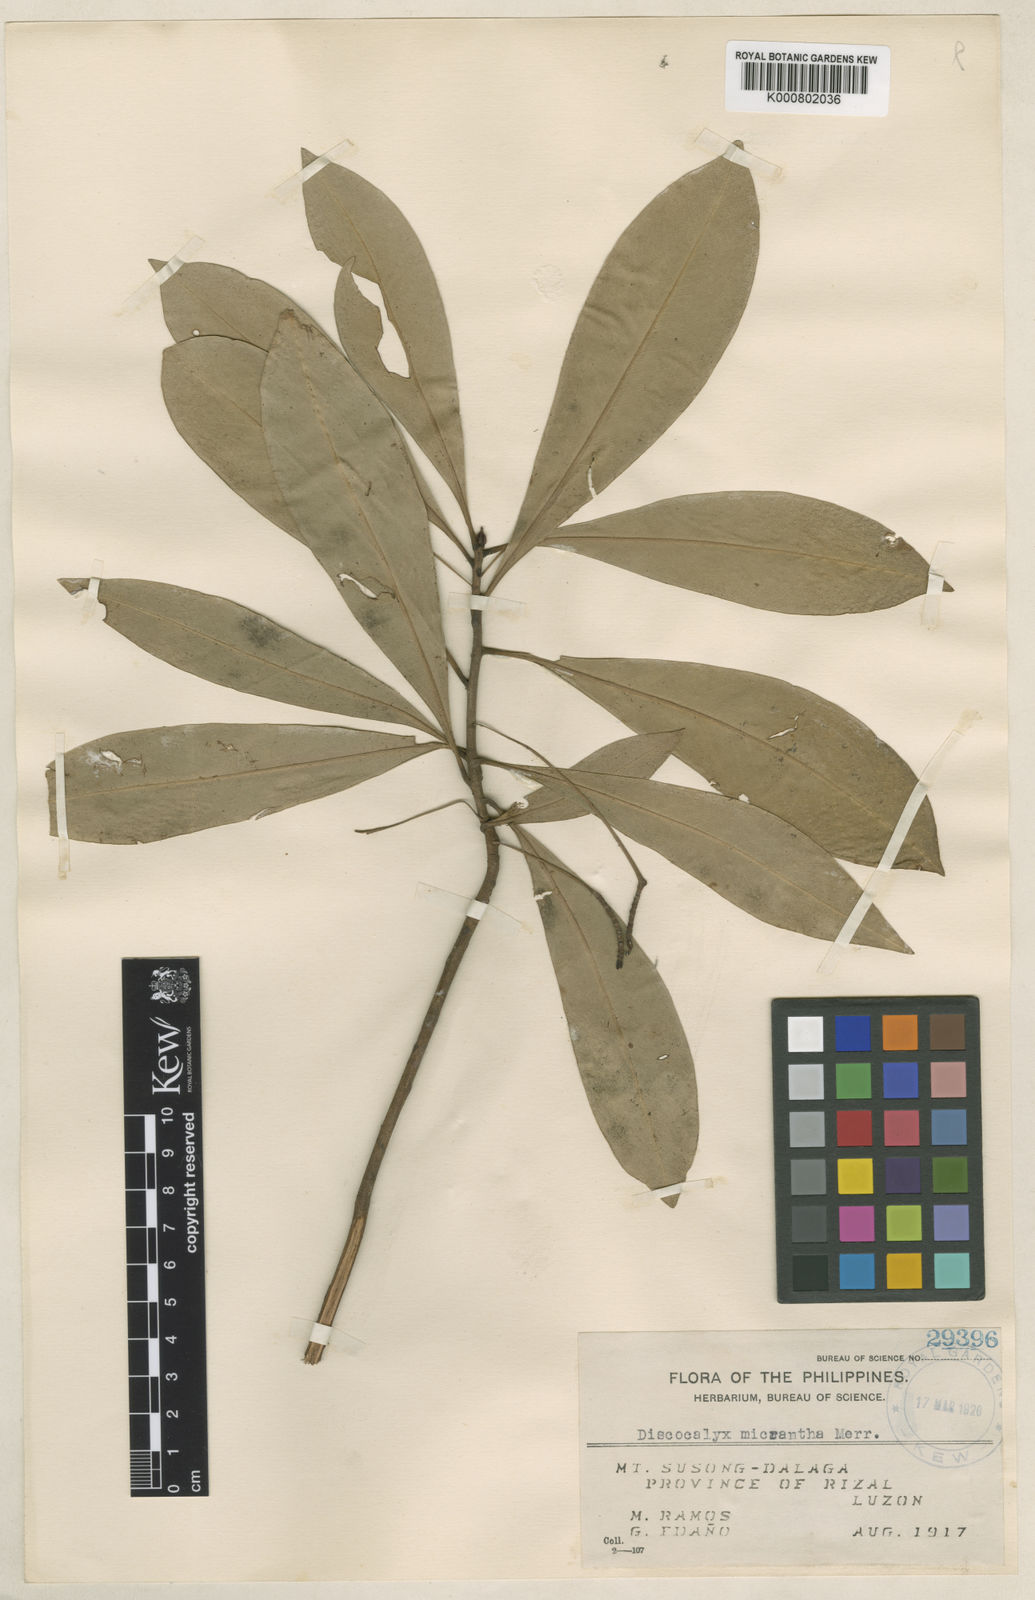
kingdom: Plantae
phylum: Tracheophyta
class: Magnoliopsida
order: Ericales
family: Primulaceae
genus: Discocalyx
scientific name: Discocalyx micrantha
